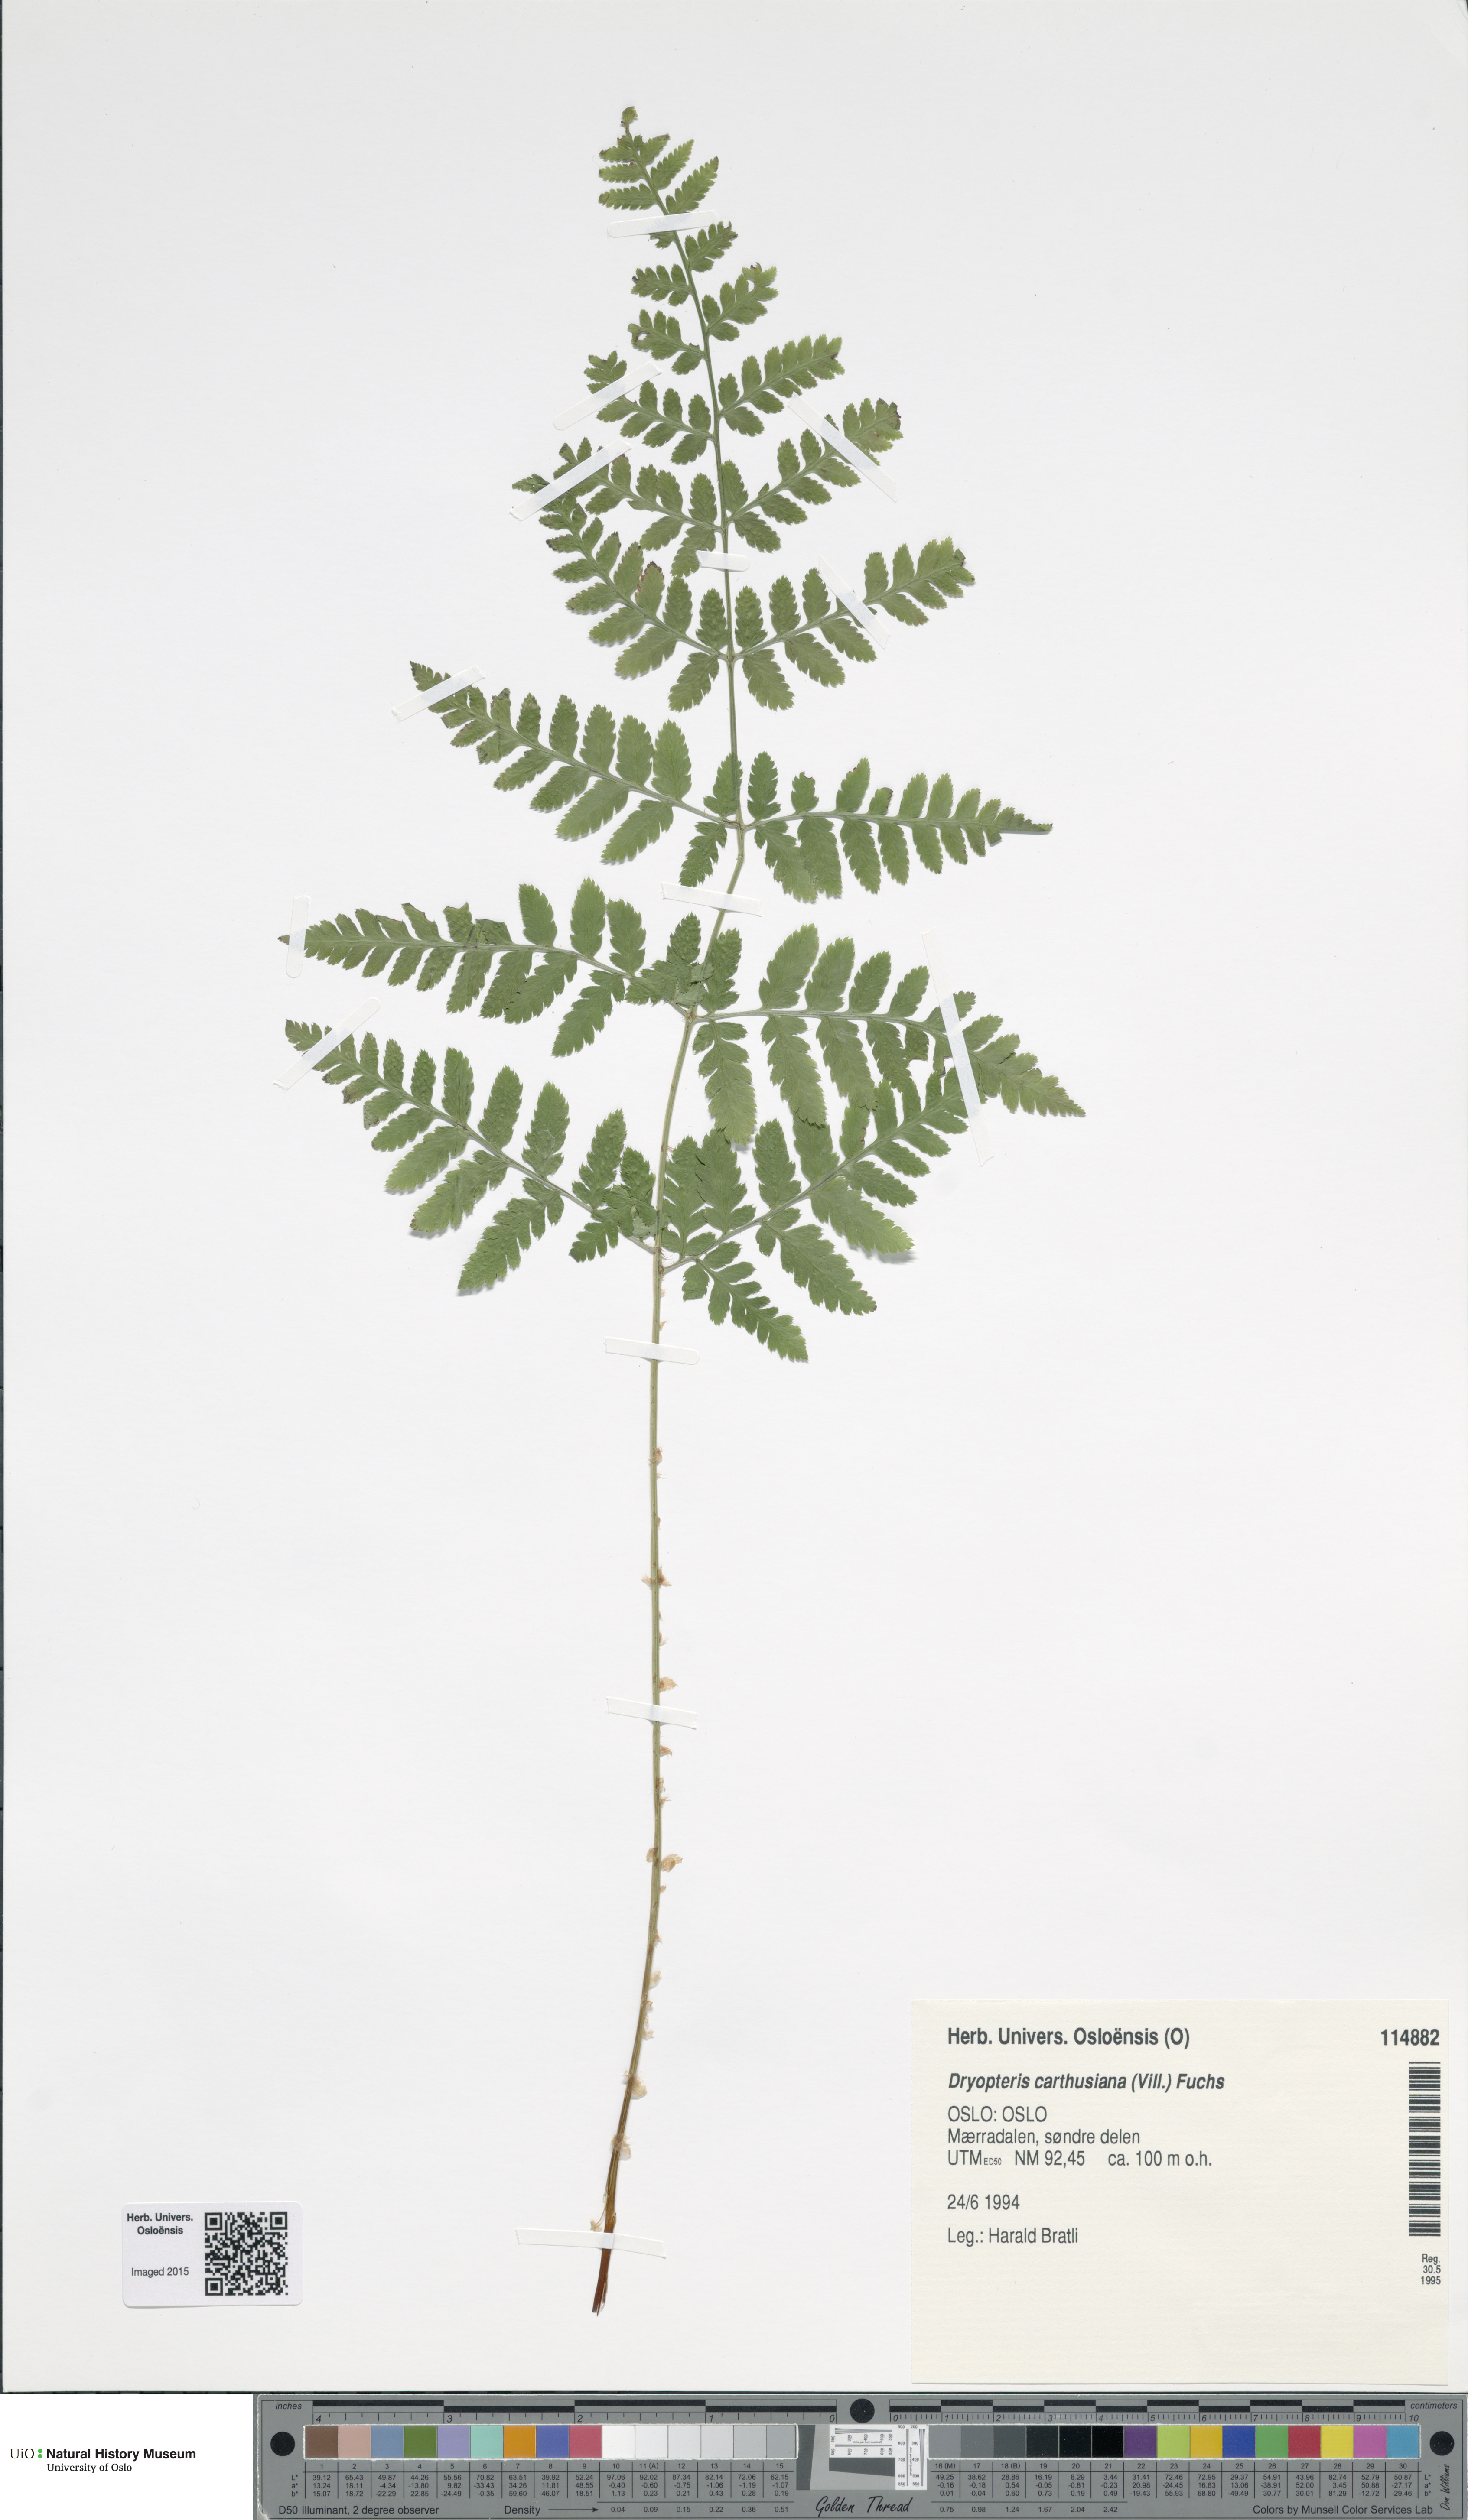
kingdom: Plantae
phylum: Tracheophyta
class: Polypodiopsida
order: Polypodiales
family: Dryopteridaceae
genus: Dryopteris
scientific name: Dryopteris carthusiana
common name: Narrow buckler-fern
